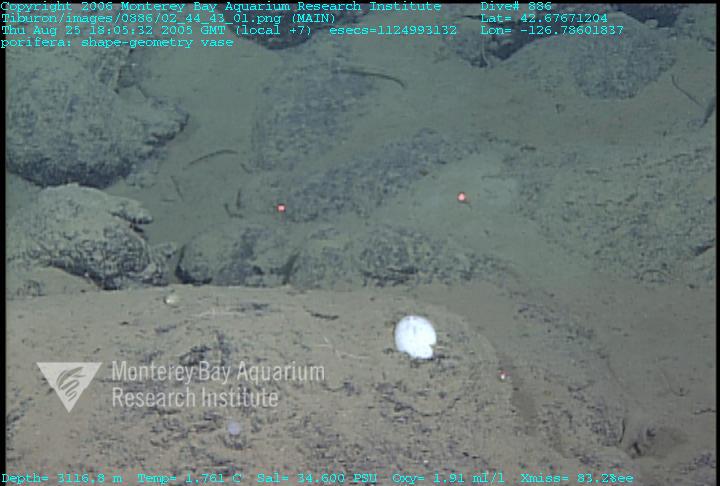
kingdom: Animalia
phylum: Porifera
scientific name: Porifera
